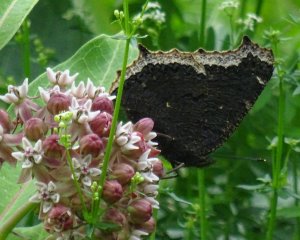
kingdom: Animalia
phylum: Arthropoda
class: Insecta
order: Lepidoptera
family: Nymphalidae
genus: Nymphalis
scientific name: Nymphalis antiopa
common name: Mourning Cloak
